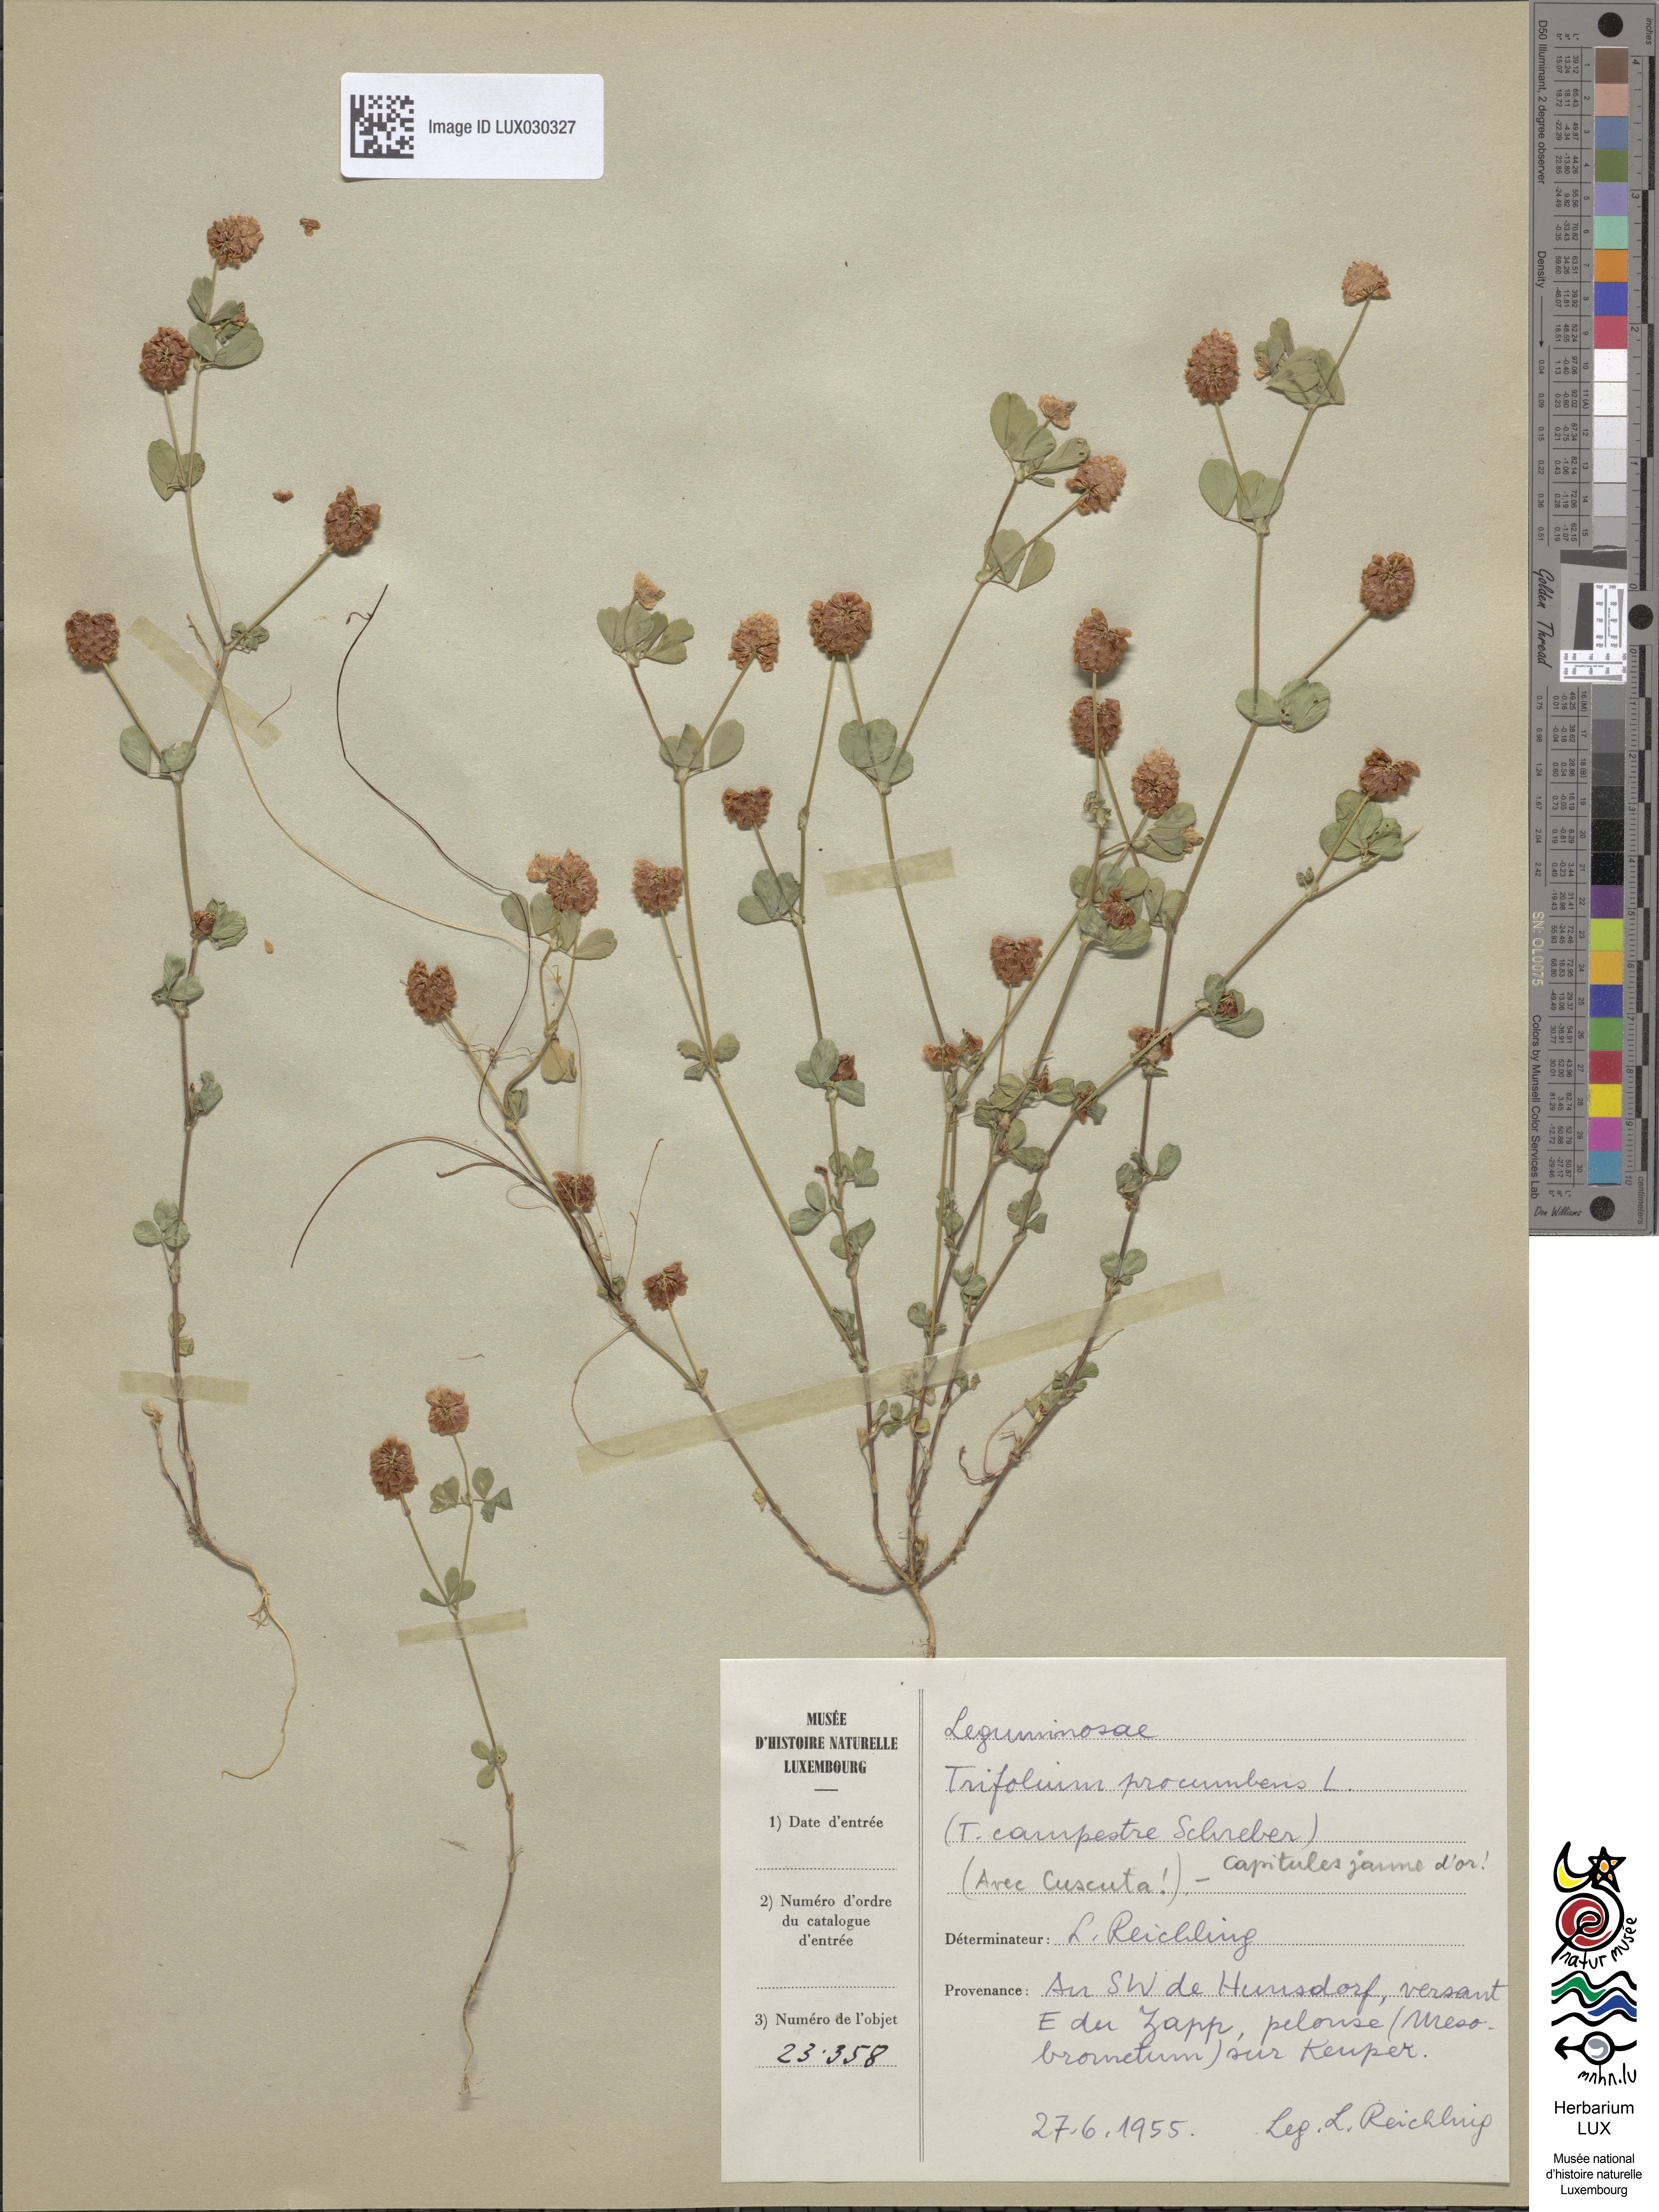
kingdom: Plantae
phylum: Tracheophyta
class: Magnoliopsida
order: Fabales
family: Fabaceae
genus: Trifolium
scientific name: Trifolium campestre
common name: Field clover
